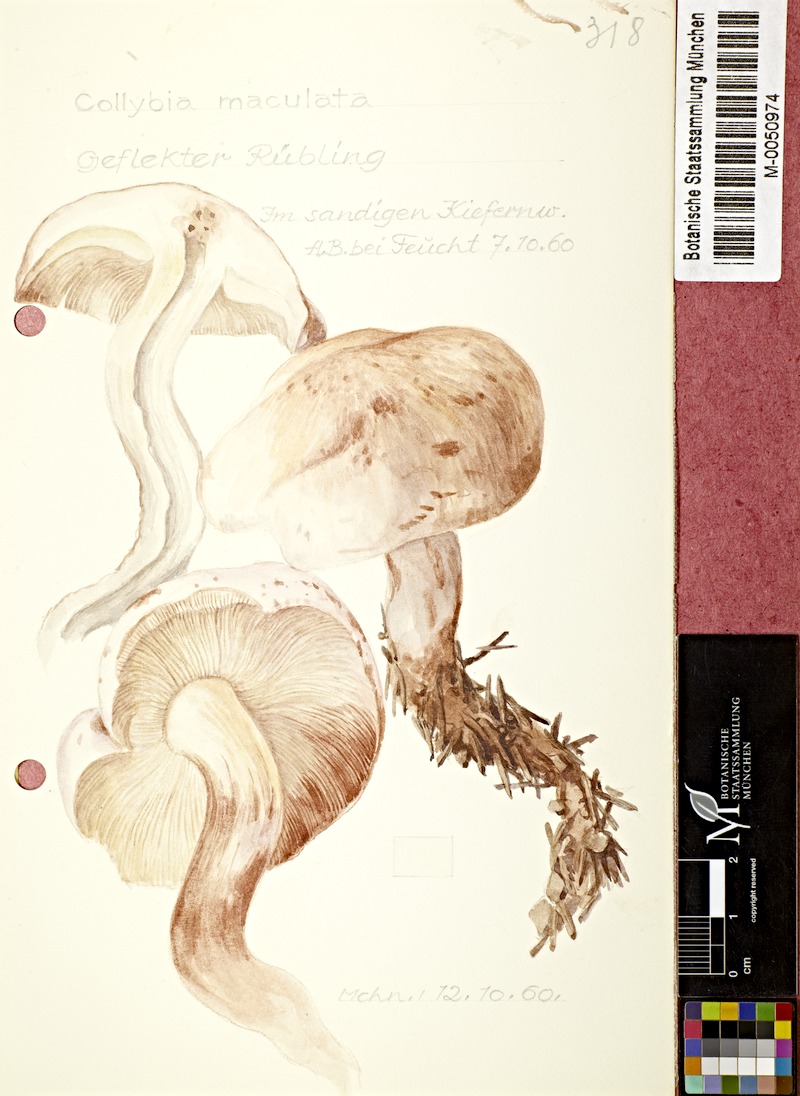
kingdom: Fungi
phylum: Basidiomycota
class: Agaricomycetes
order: Agaricales
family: Omphalotaceae
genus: Rhodocollybia
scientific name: Rhodocollybia maculata
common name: Spotted tough-shank
